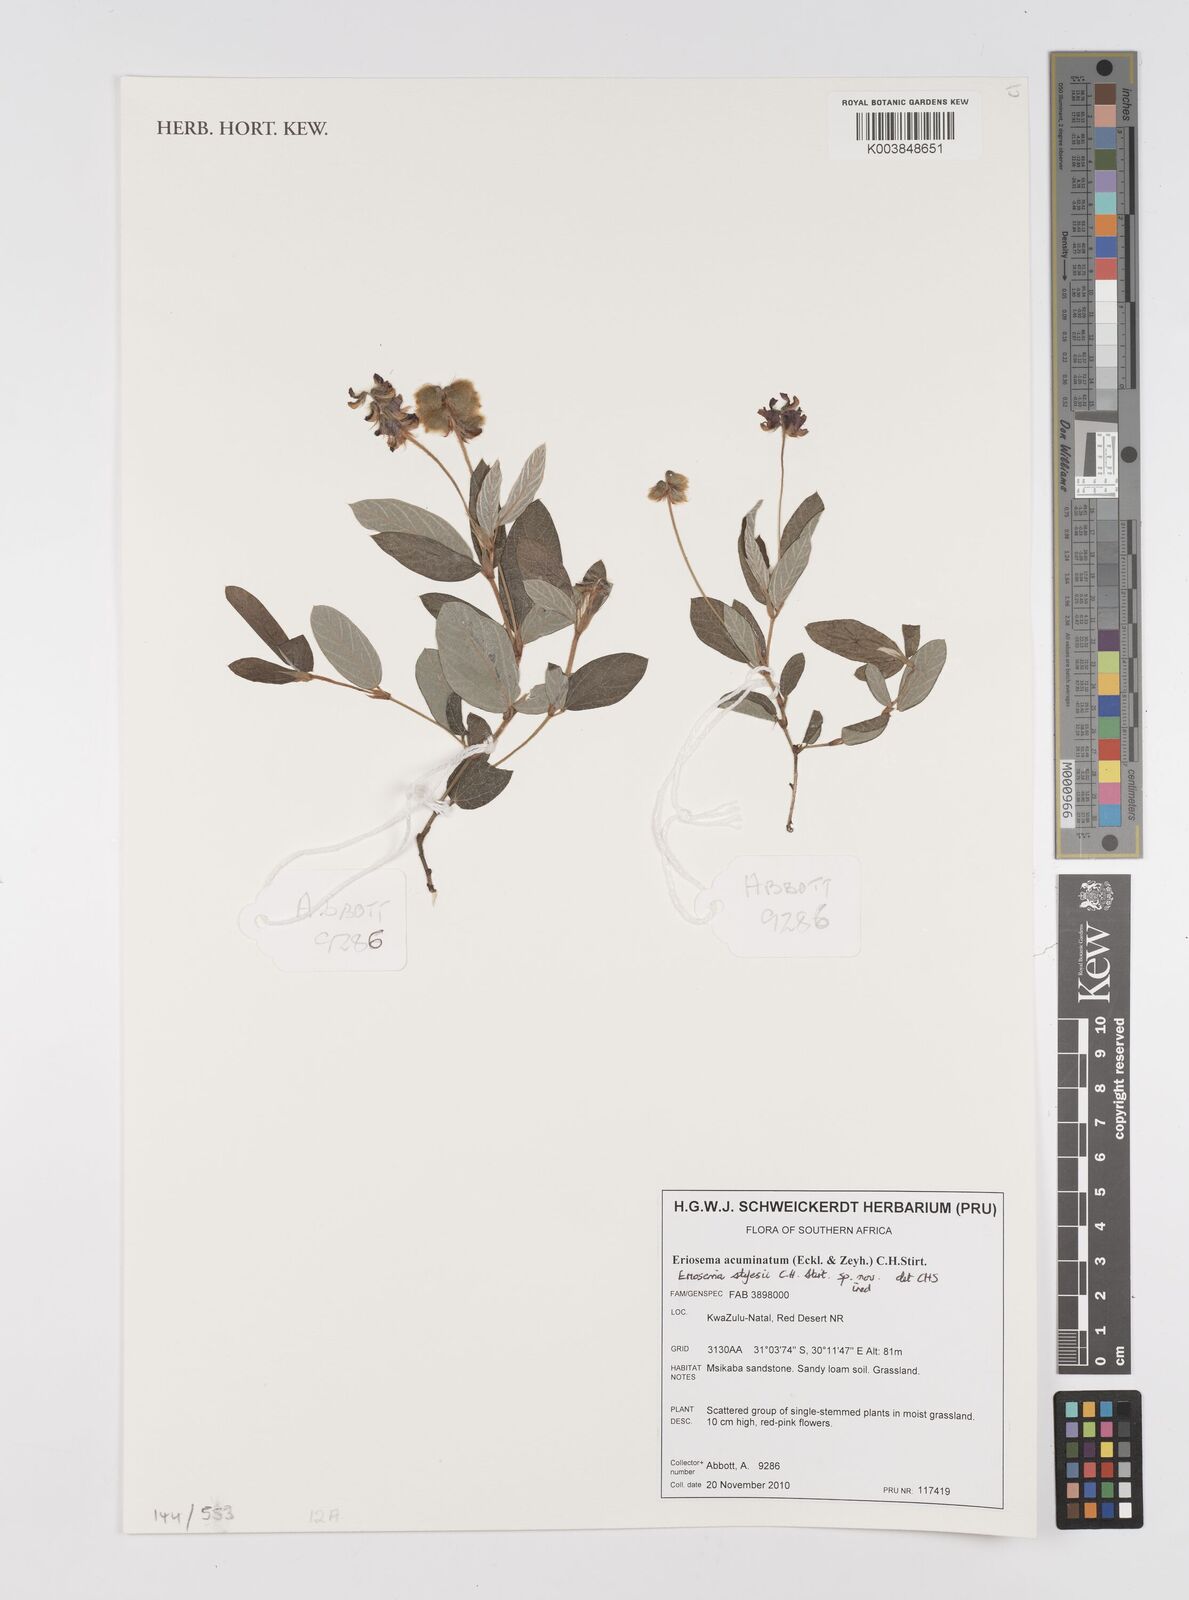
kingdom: Plantae
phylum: Tracheophyta
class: Magnoliopsida
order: Fabales
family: Fabaceae
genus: Eriosema
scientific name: Eriosema
